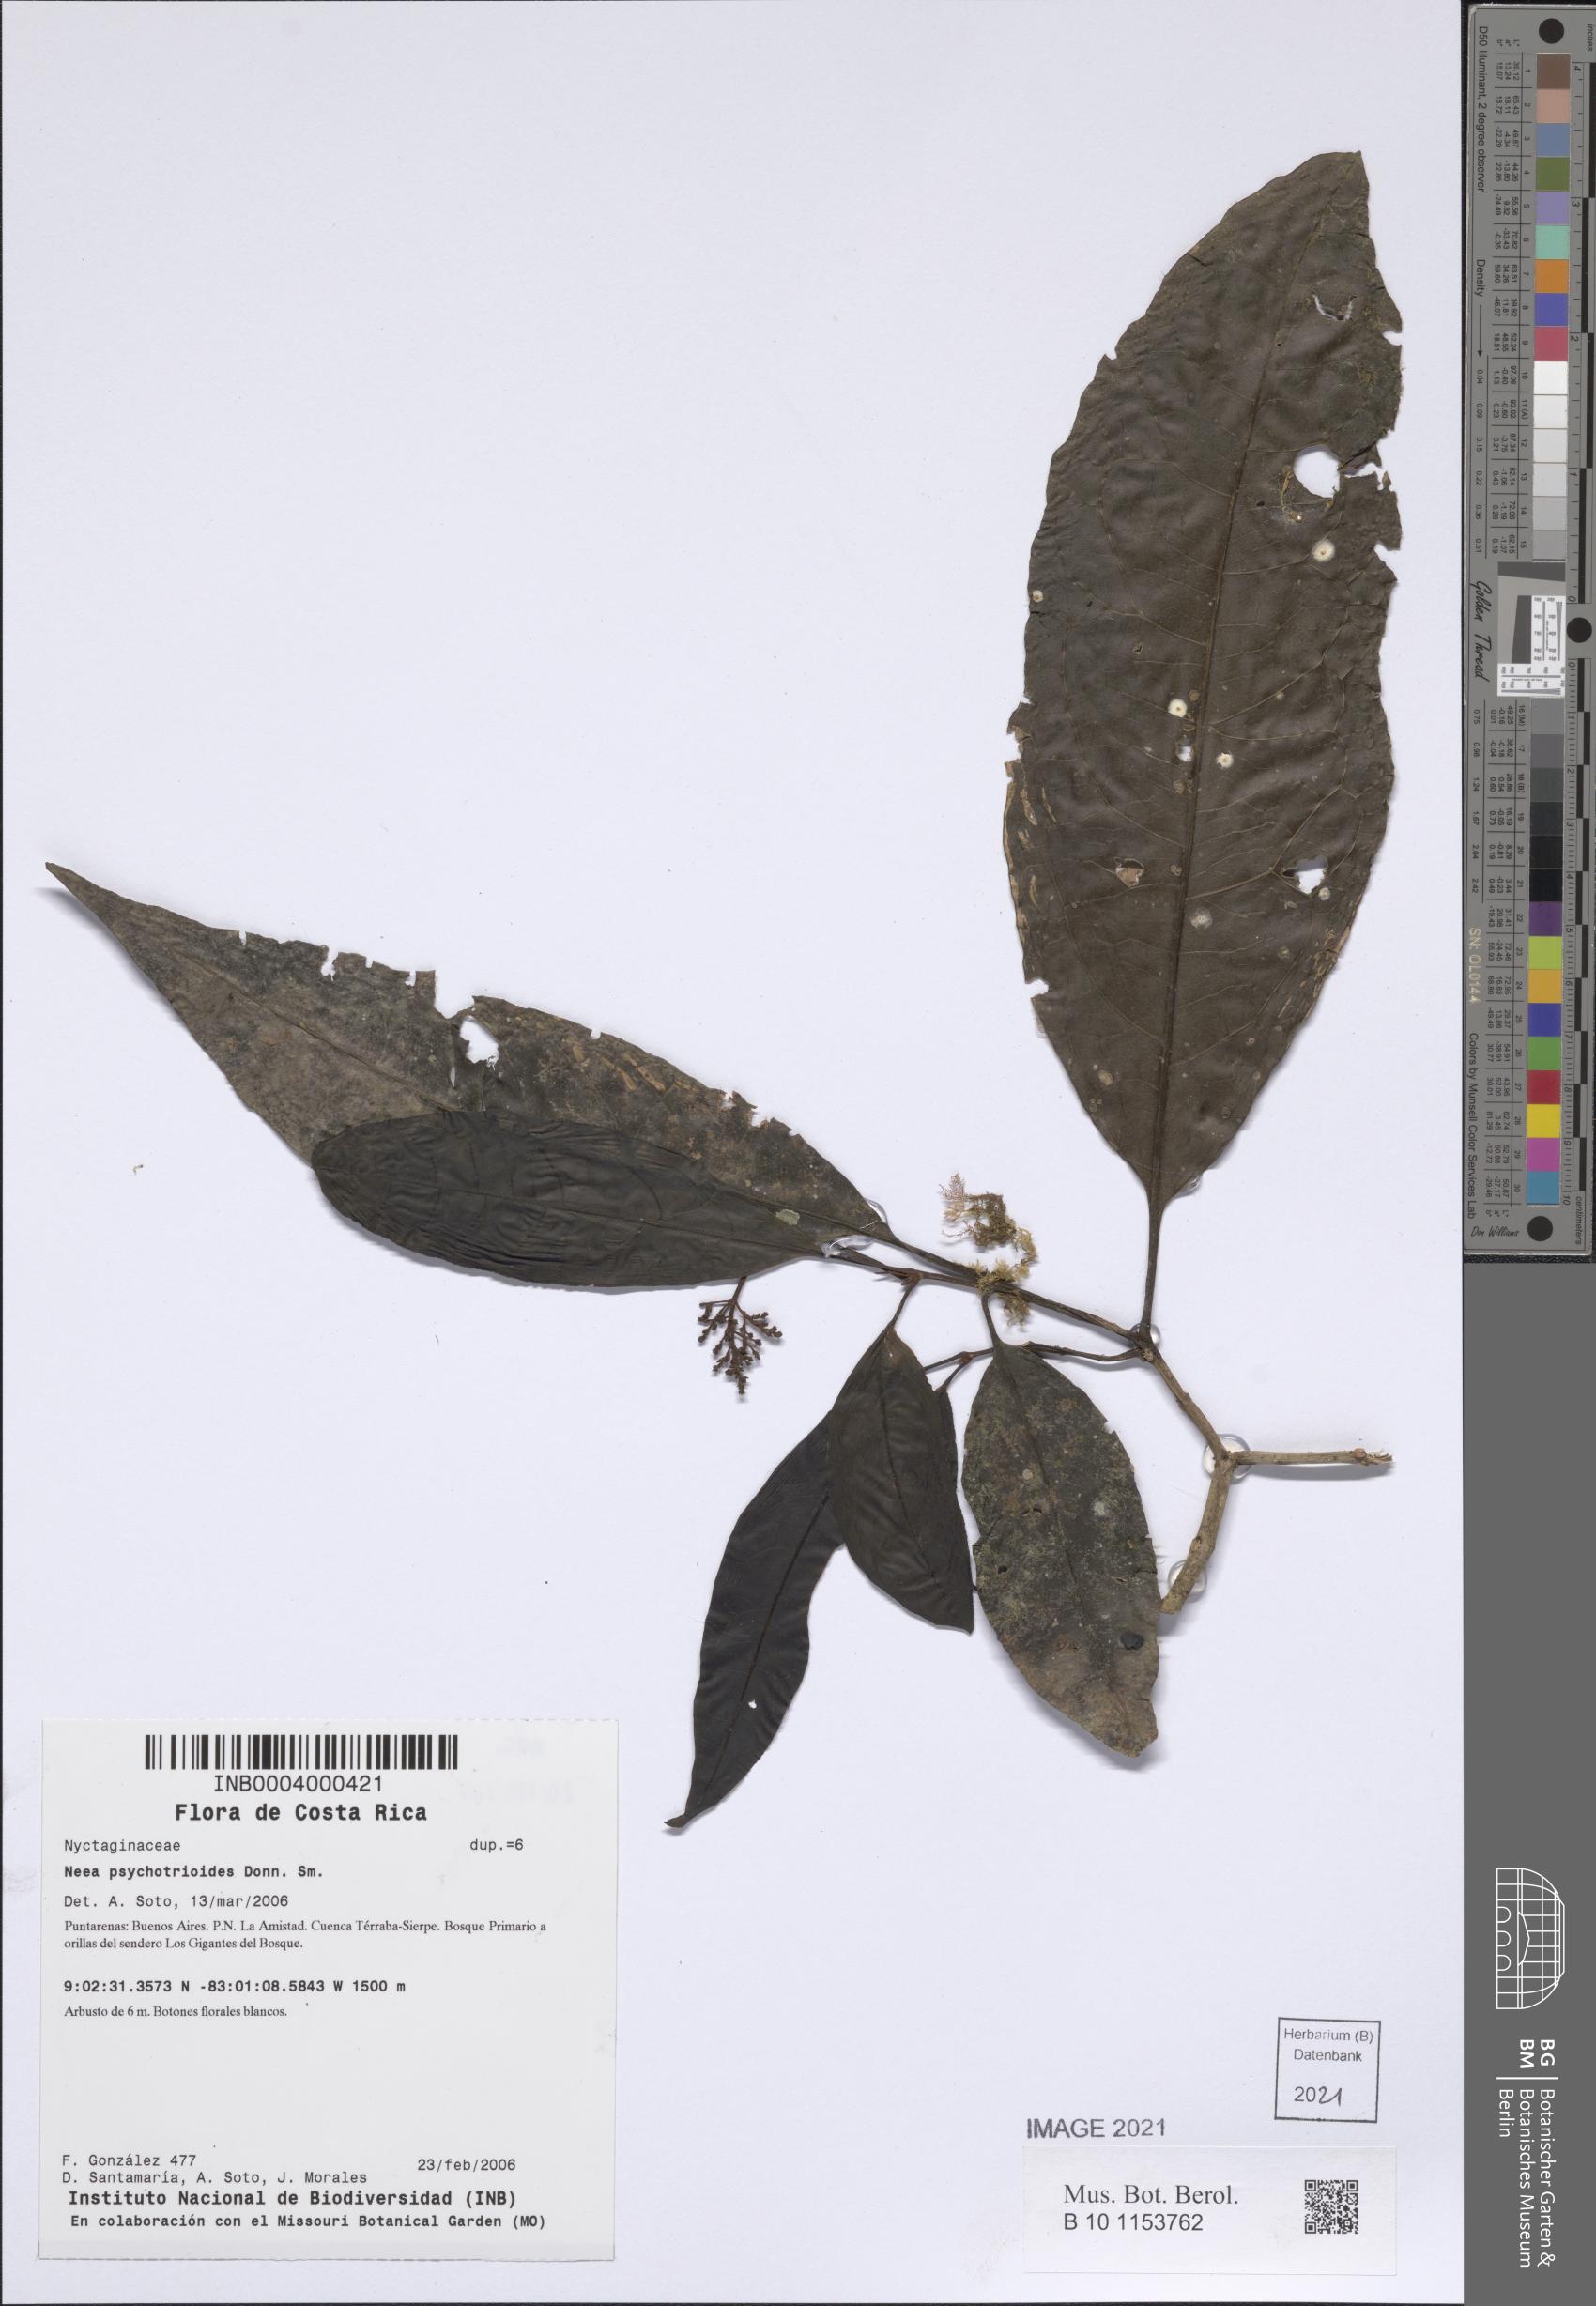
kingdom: Plantae
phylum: Tracheophyta
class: Magnoliopsida
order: Caryophyllales
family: Nyctaginaceae
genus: Neea
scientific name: Neea psychotrioides
